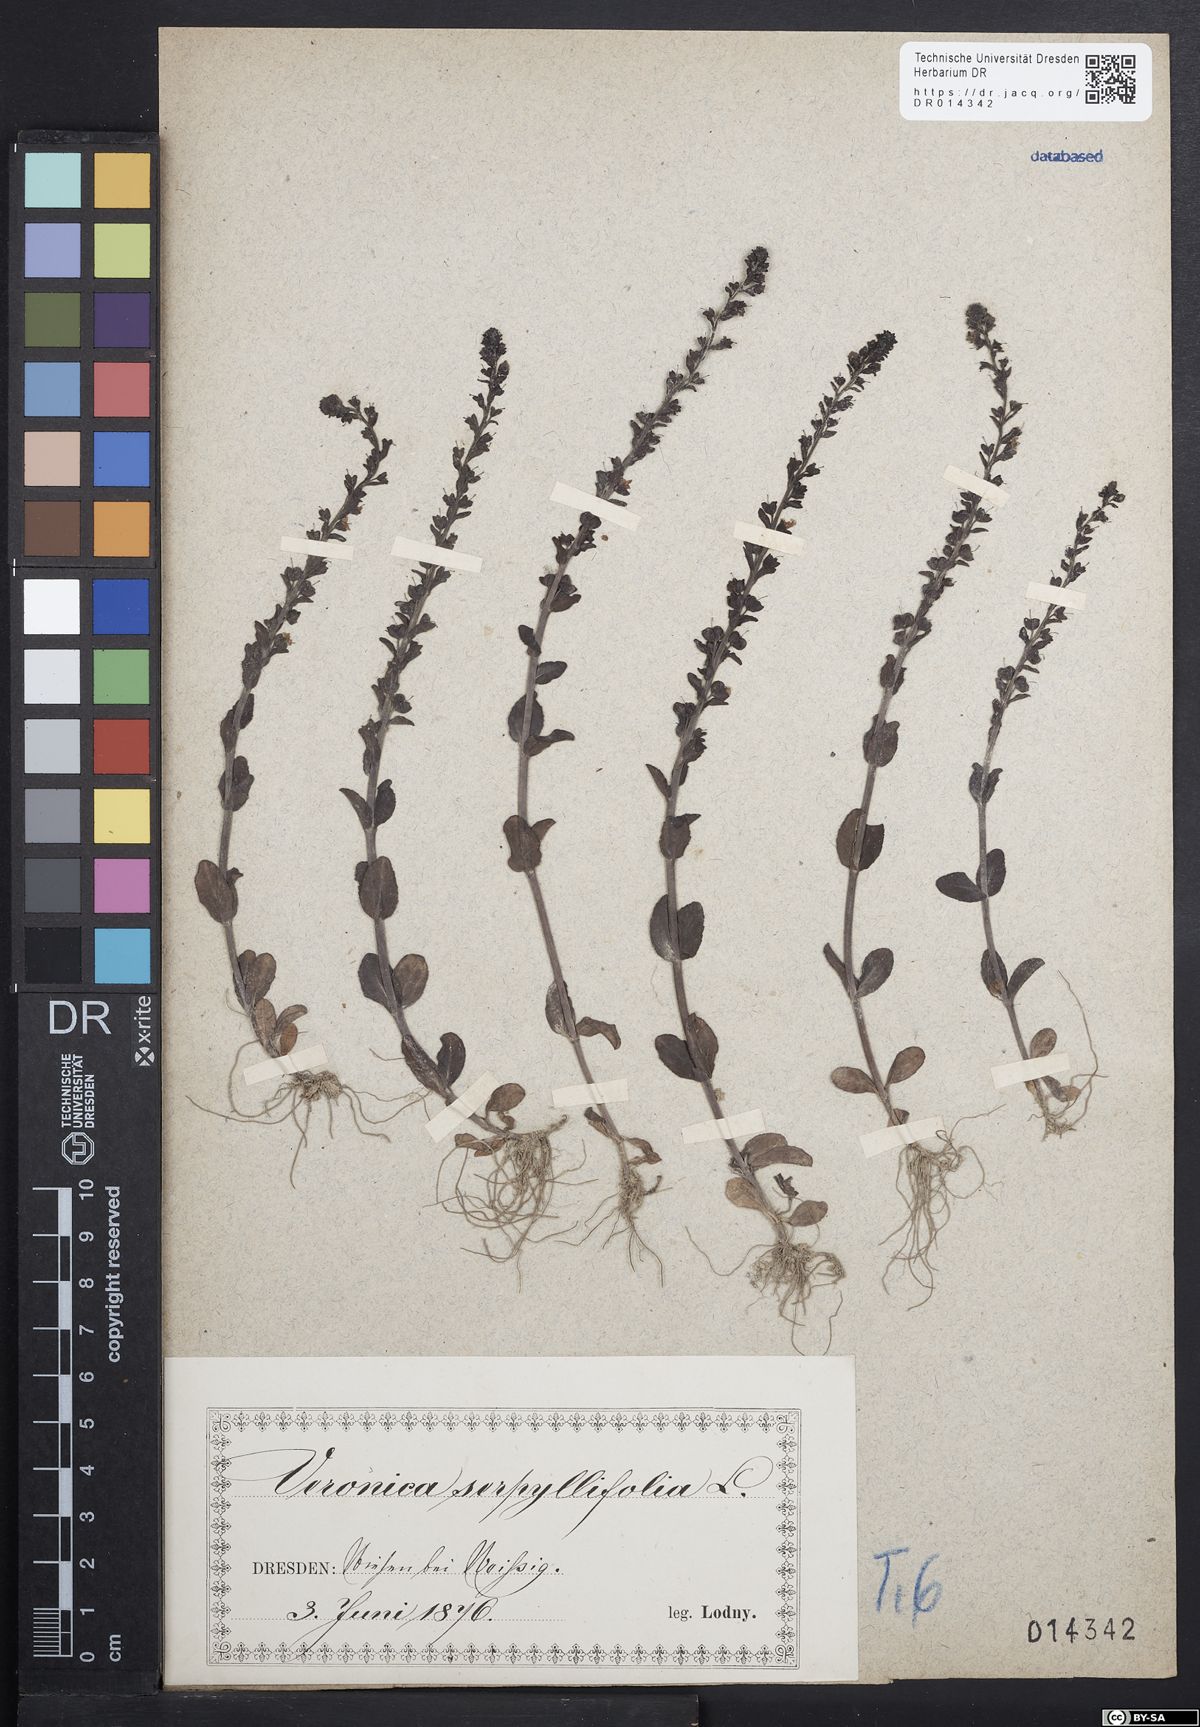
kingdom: Plantae
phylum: Tracheophyta
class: Magnoliopsida
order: Lamiales
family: Plantaginaceae
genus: Veronica
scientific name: Veronica serpyllifolia
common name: Thyme-leaved speedwell
